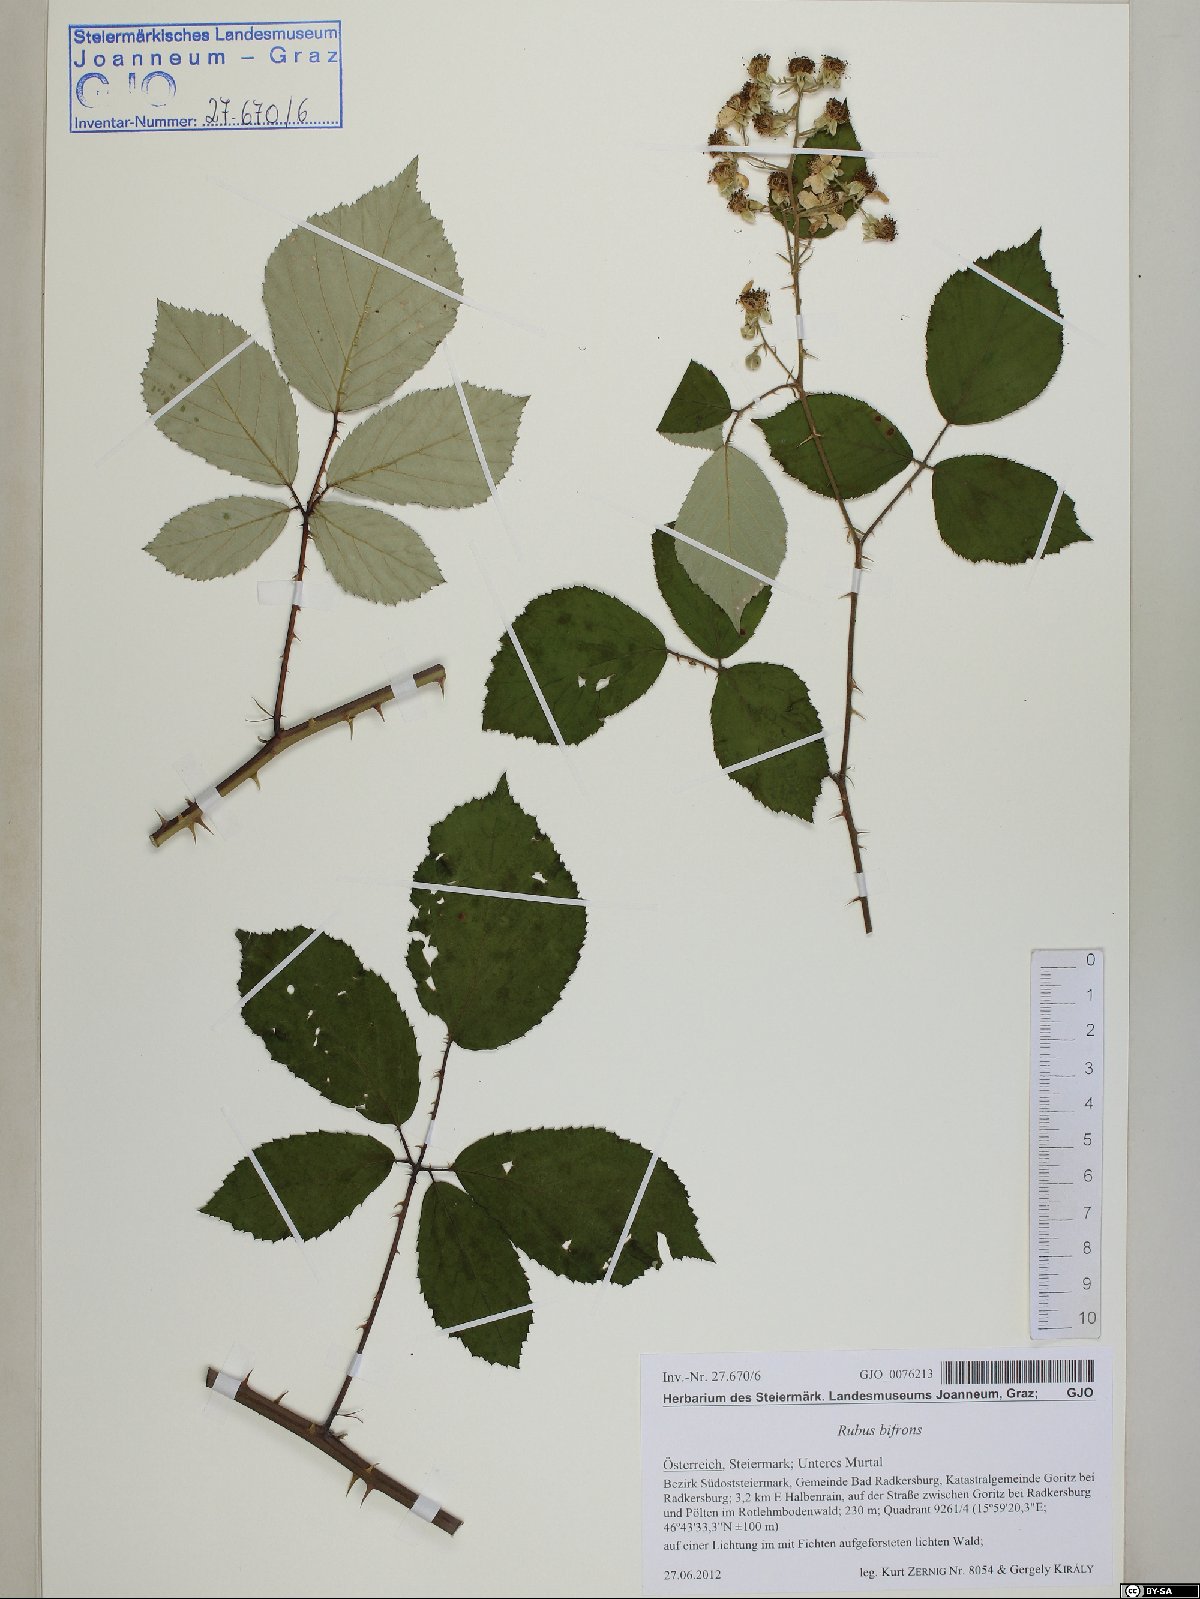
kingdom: Plantae
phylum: Tracheophyta
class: Magnoliopsida
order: Rosales
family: Rosaceae
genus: Rubus
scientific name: Rubus bifrons
